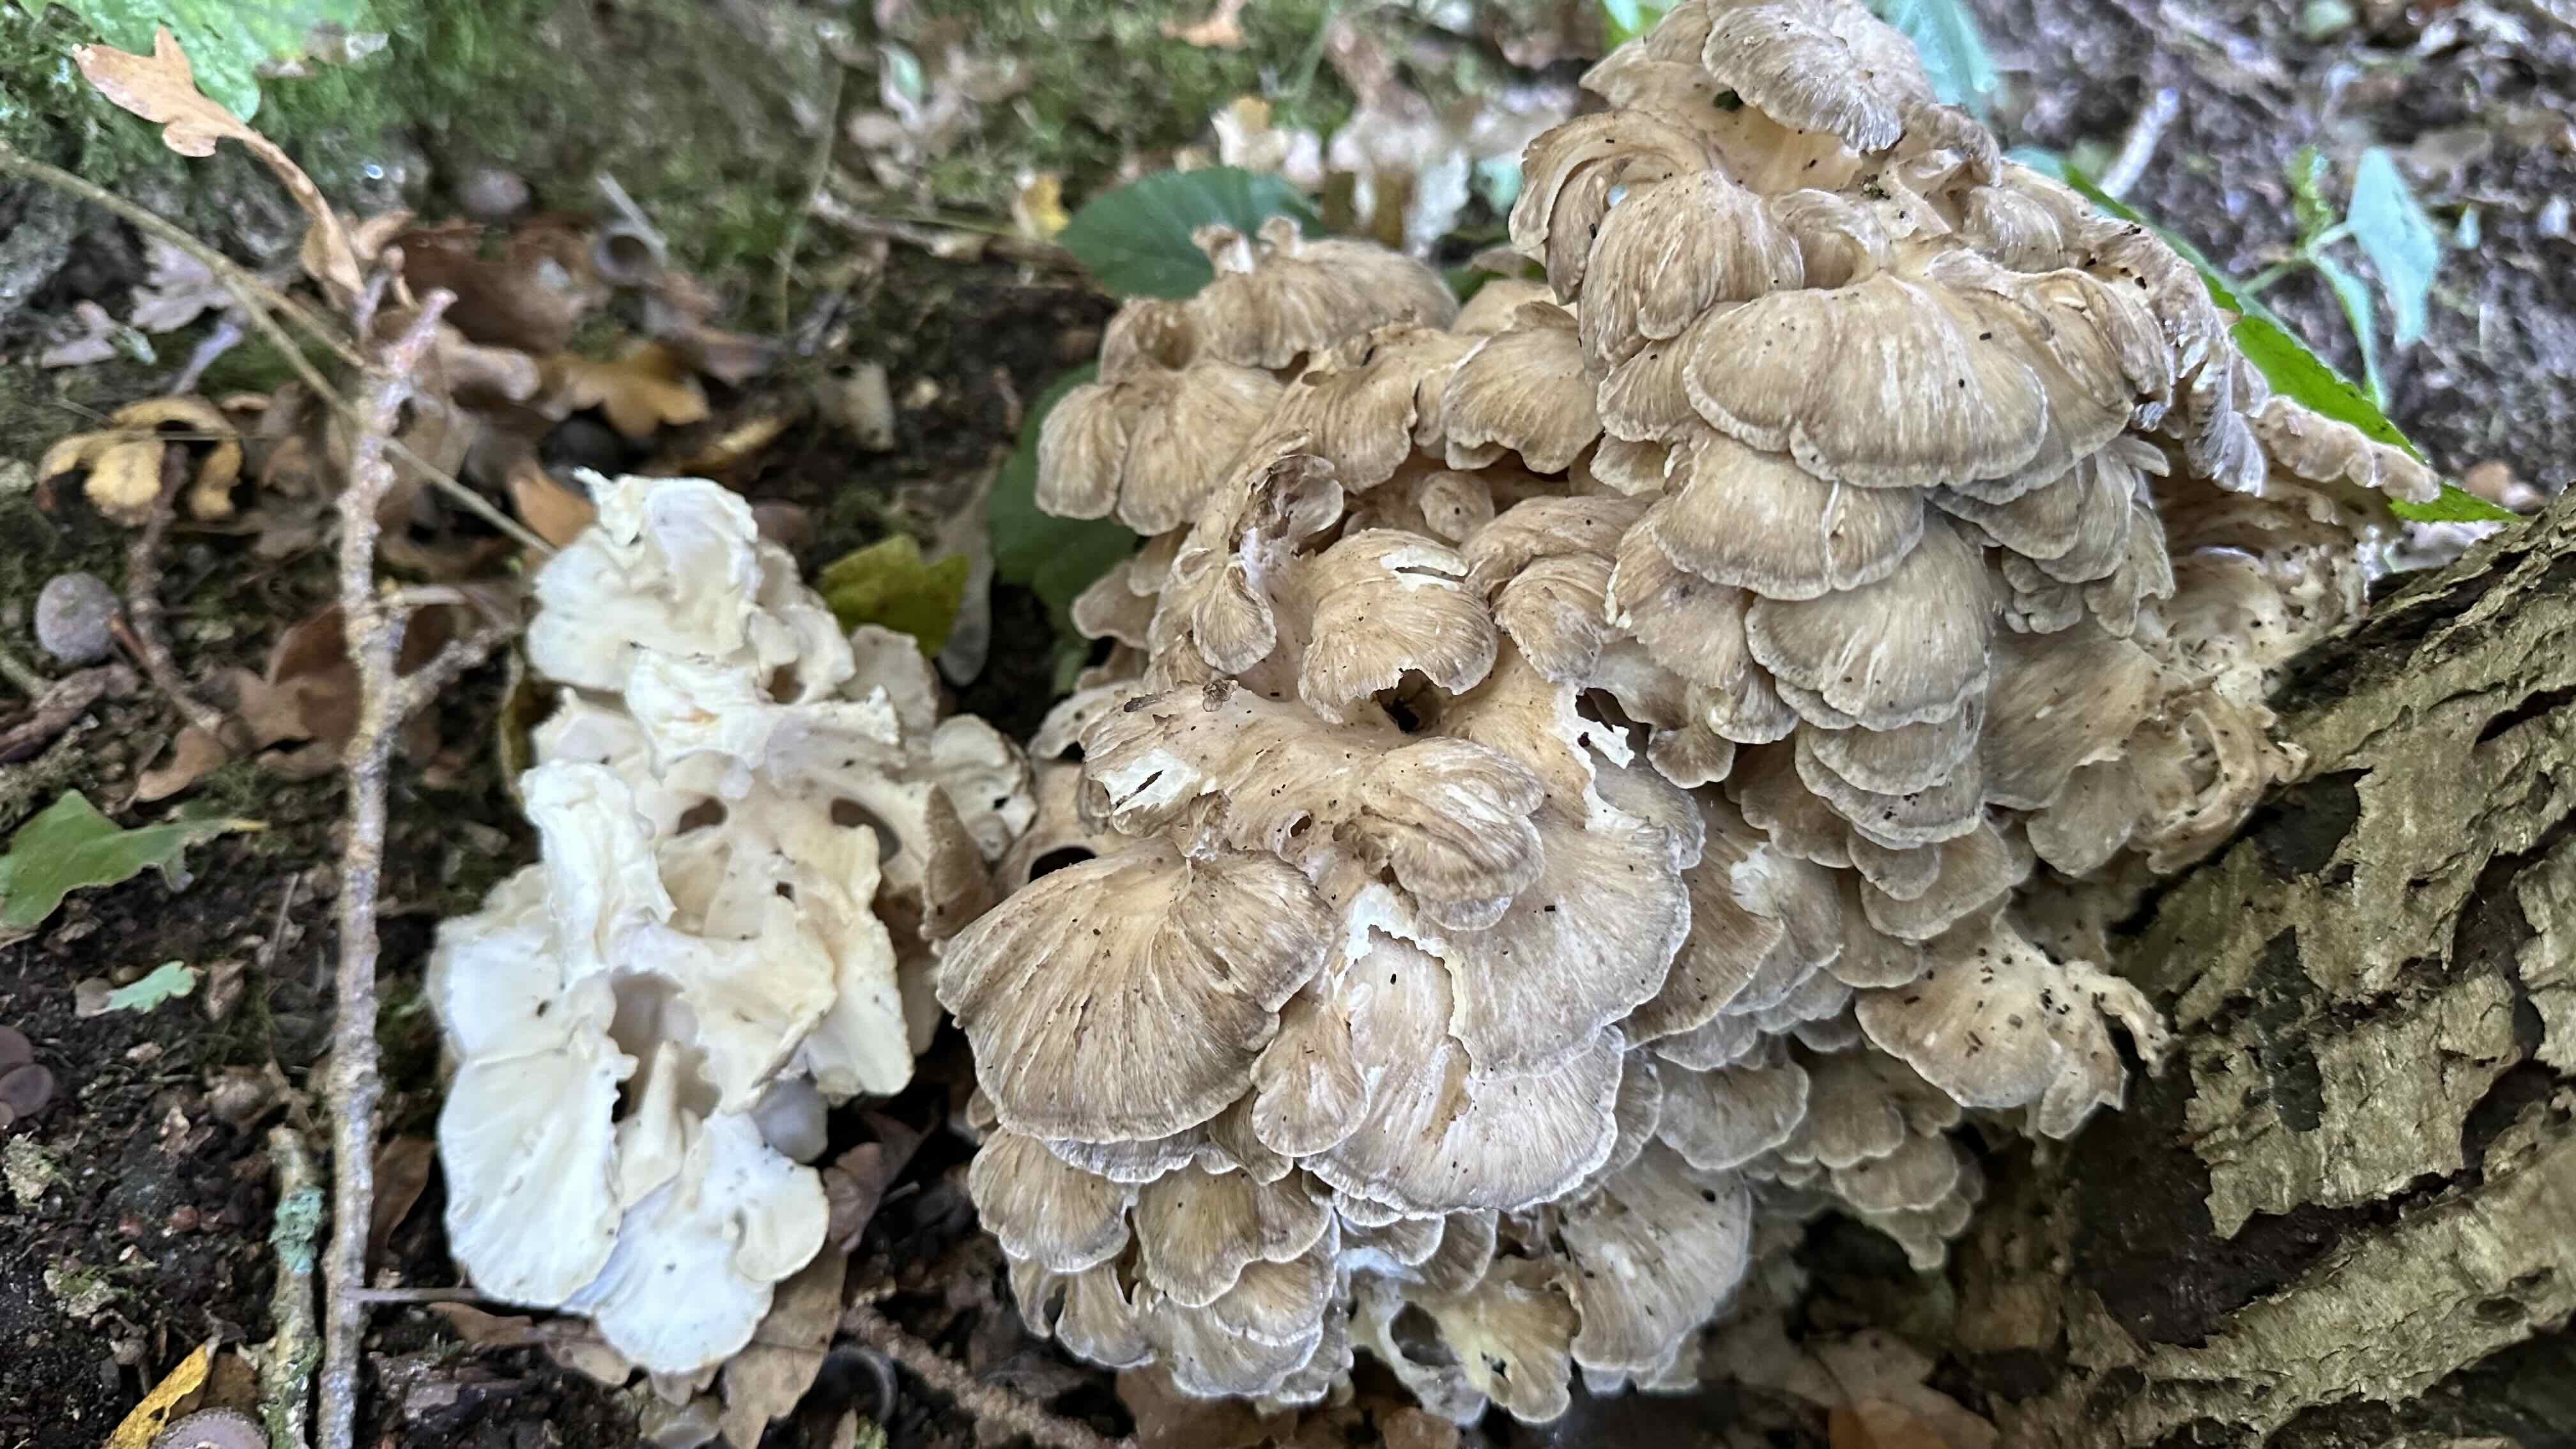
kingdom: Fungi
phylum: Basidiomycota
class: Agaricomycetes
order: Polyporales
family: Grifolaceae
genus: Grifola
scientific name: Grifola frondosa
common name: tueporesvamp
